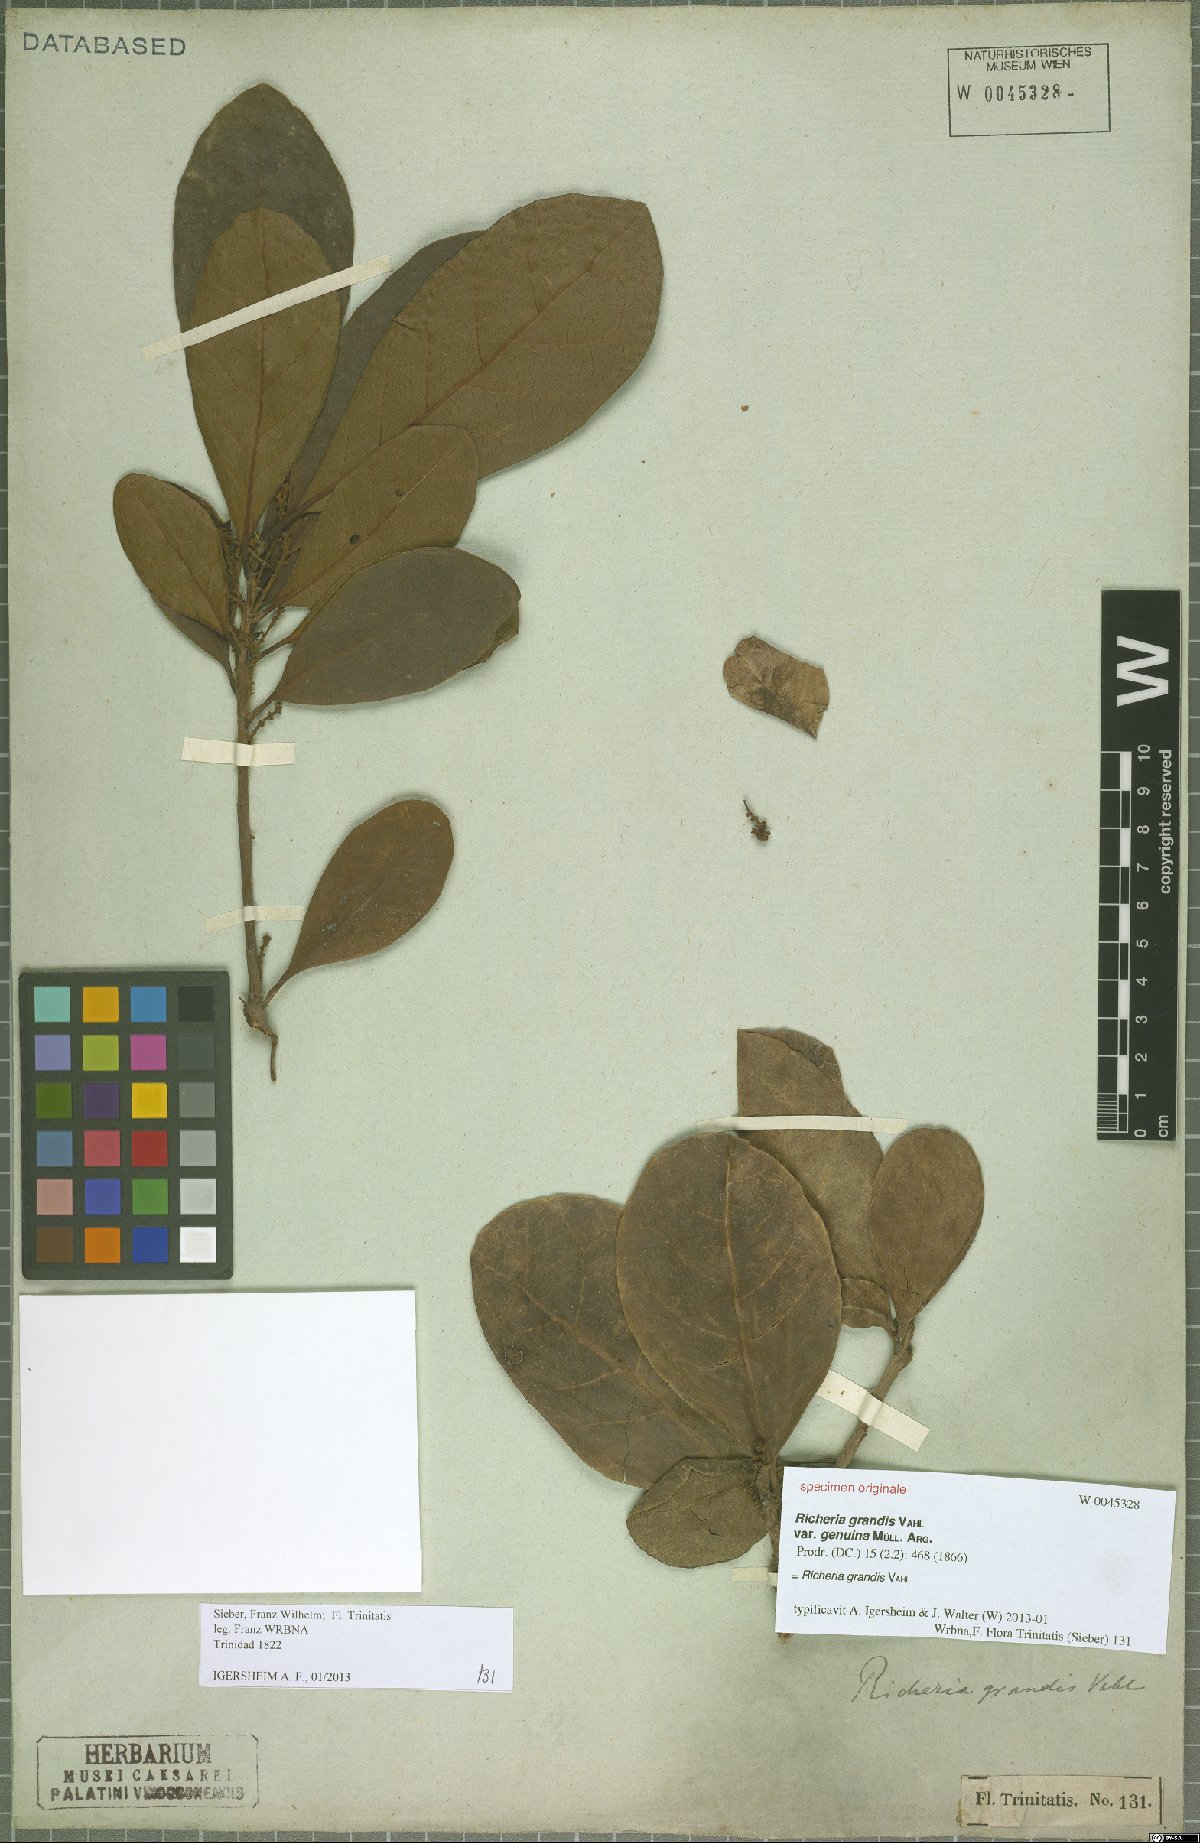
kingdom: Plantae
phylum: Tracheophyta
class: Magnoliopsida
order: Malpighiales
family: Phyllanthaceae
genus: Richeria
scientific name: Richeria grandis
